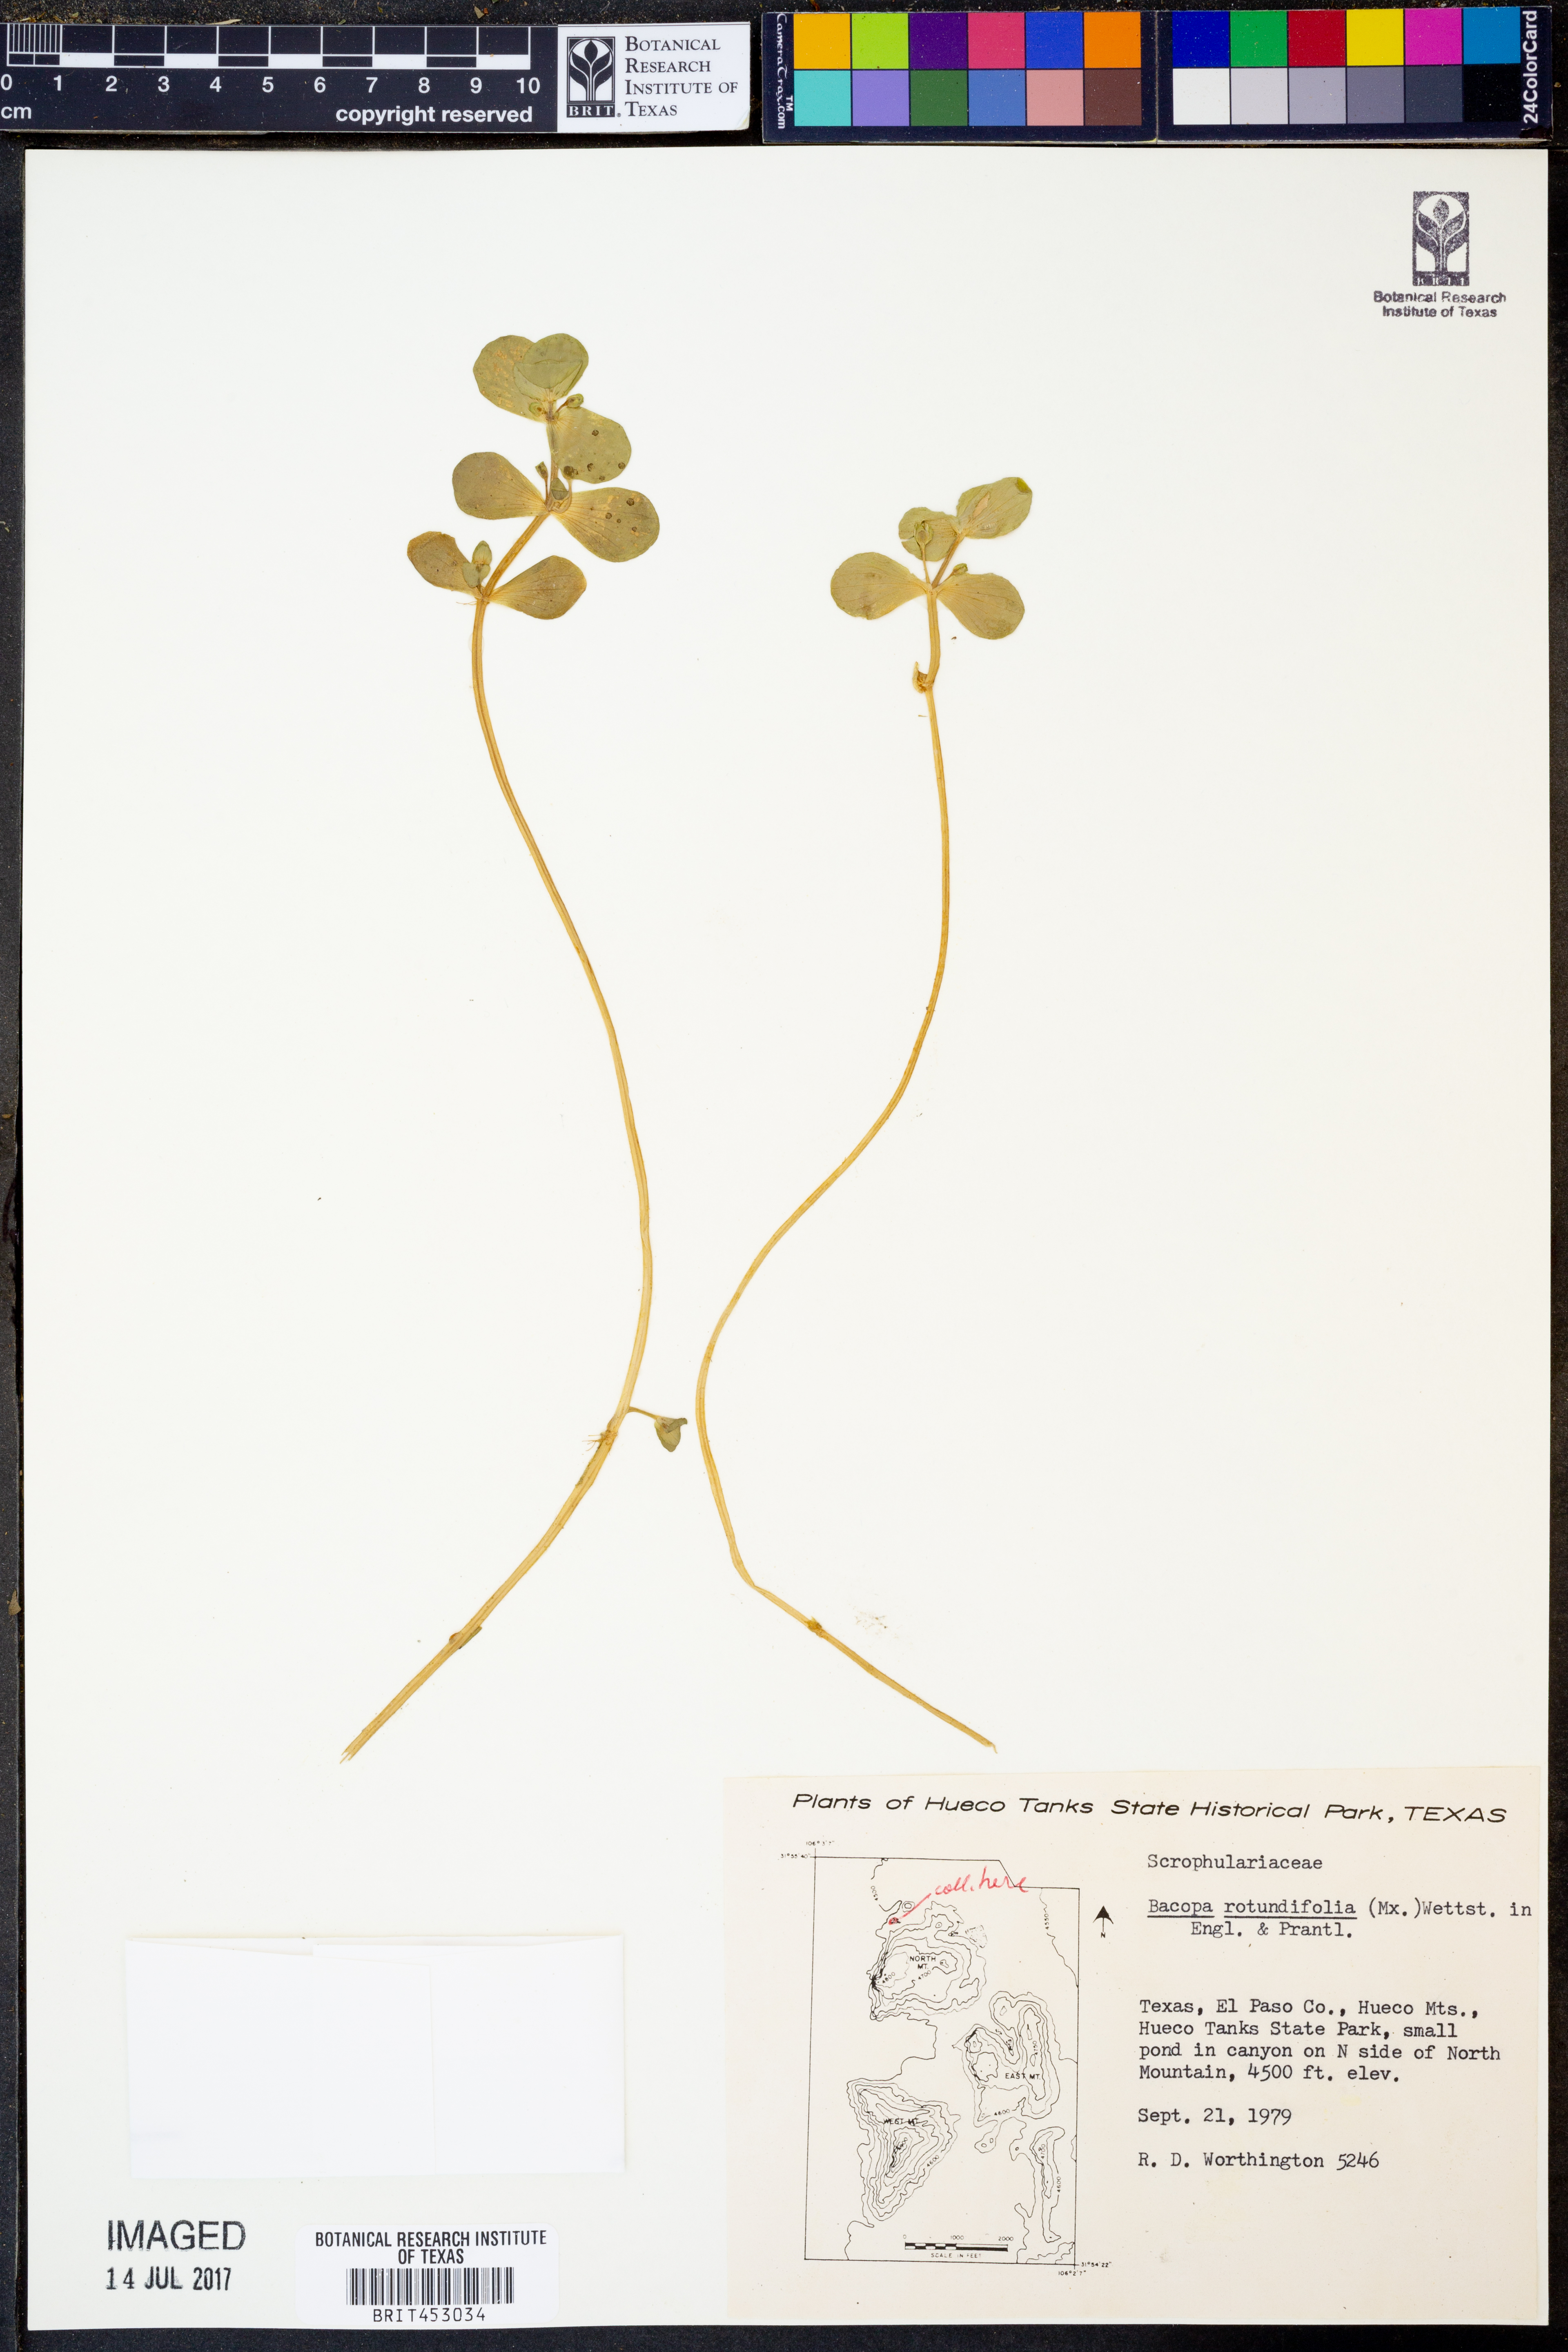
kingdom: Plantae
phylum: Tracheophyta
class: Magnoliopsida
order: Lamiales
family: Plantaginaceae
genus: Bacopa
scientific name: Bacopa rotundifolia
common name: Disc water hyssop
